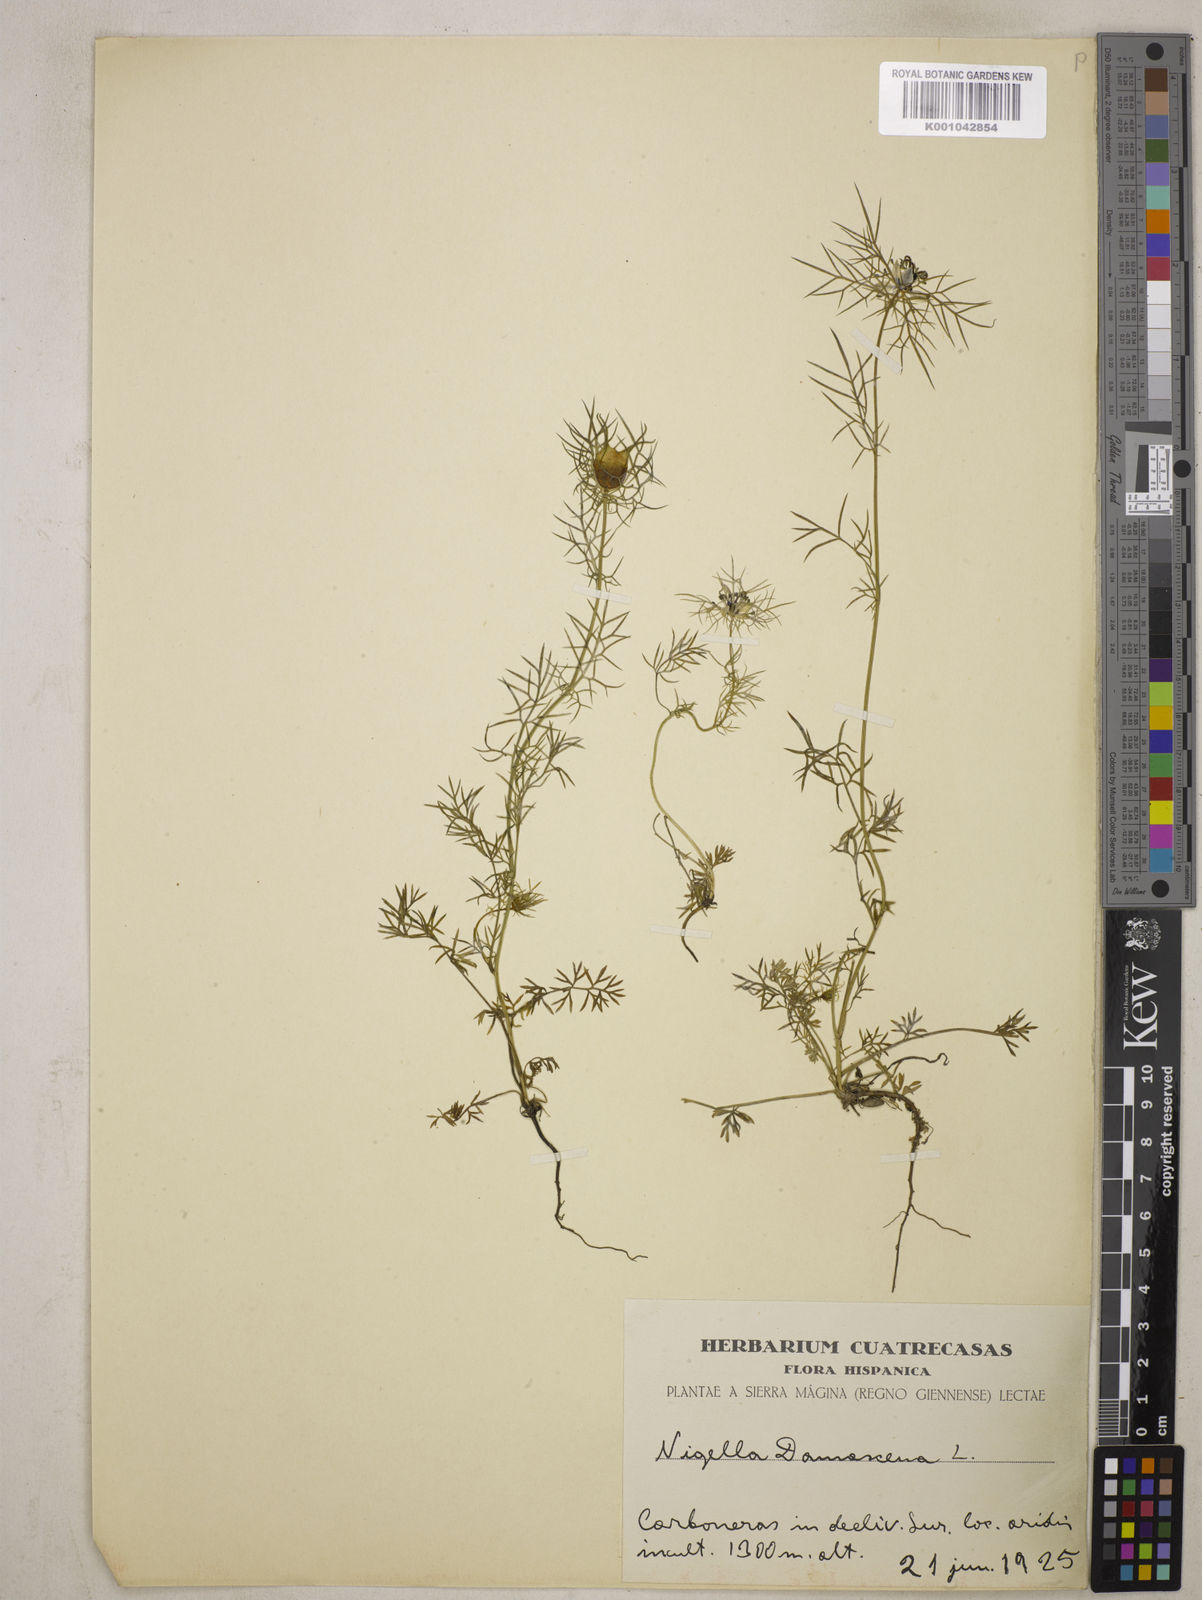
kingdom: Plantae
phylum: Tracheophyta
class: Magnoliopsida
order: Ranunculales
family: Ranunculaceae
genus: Nigella
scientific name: Nigella damascena
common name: Love-in-a-mist
